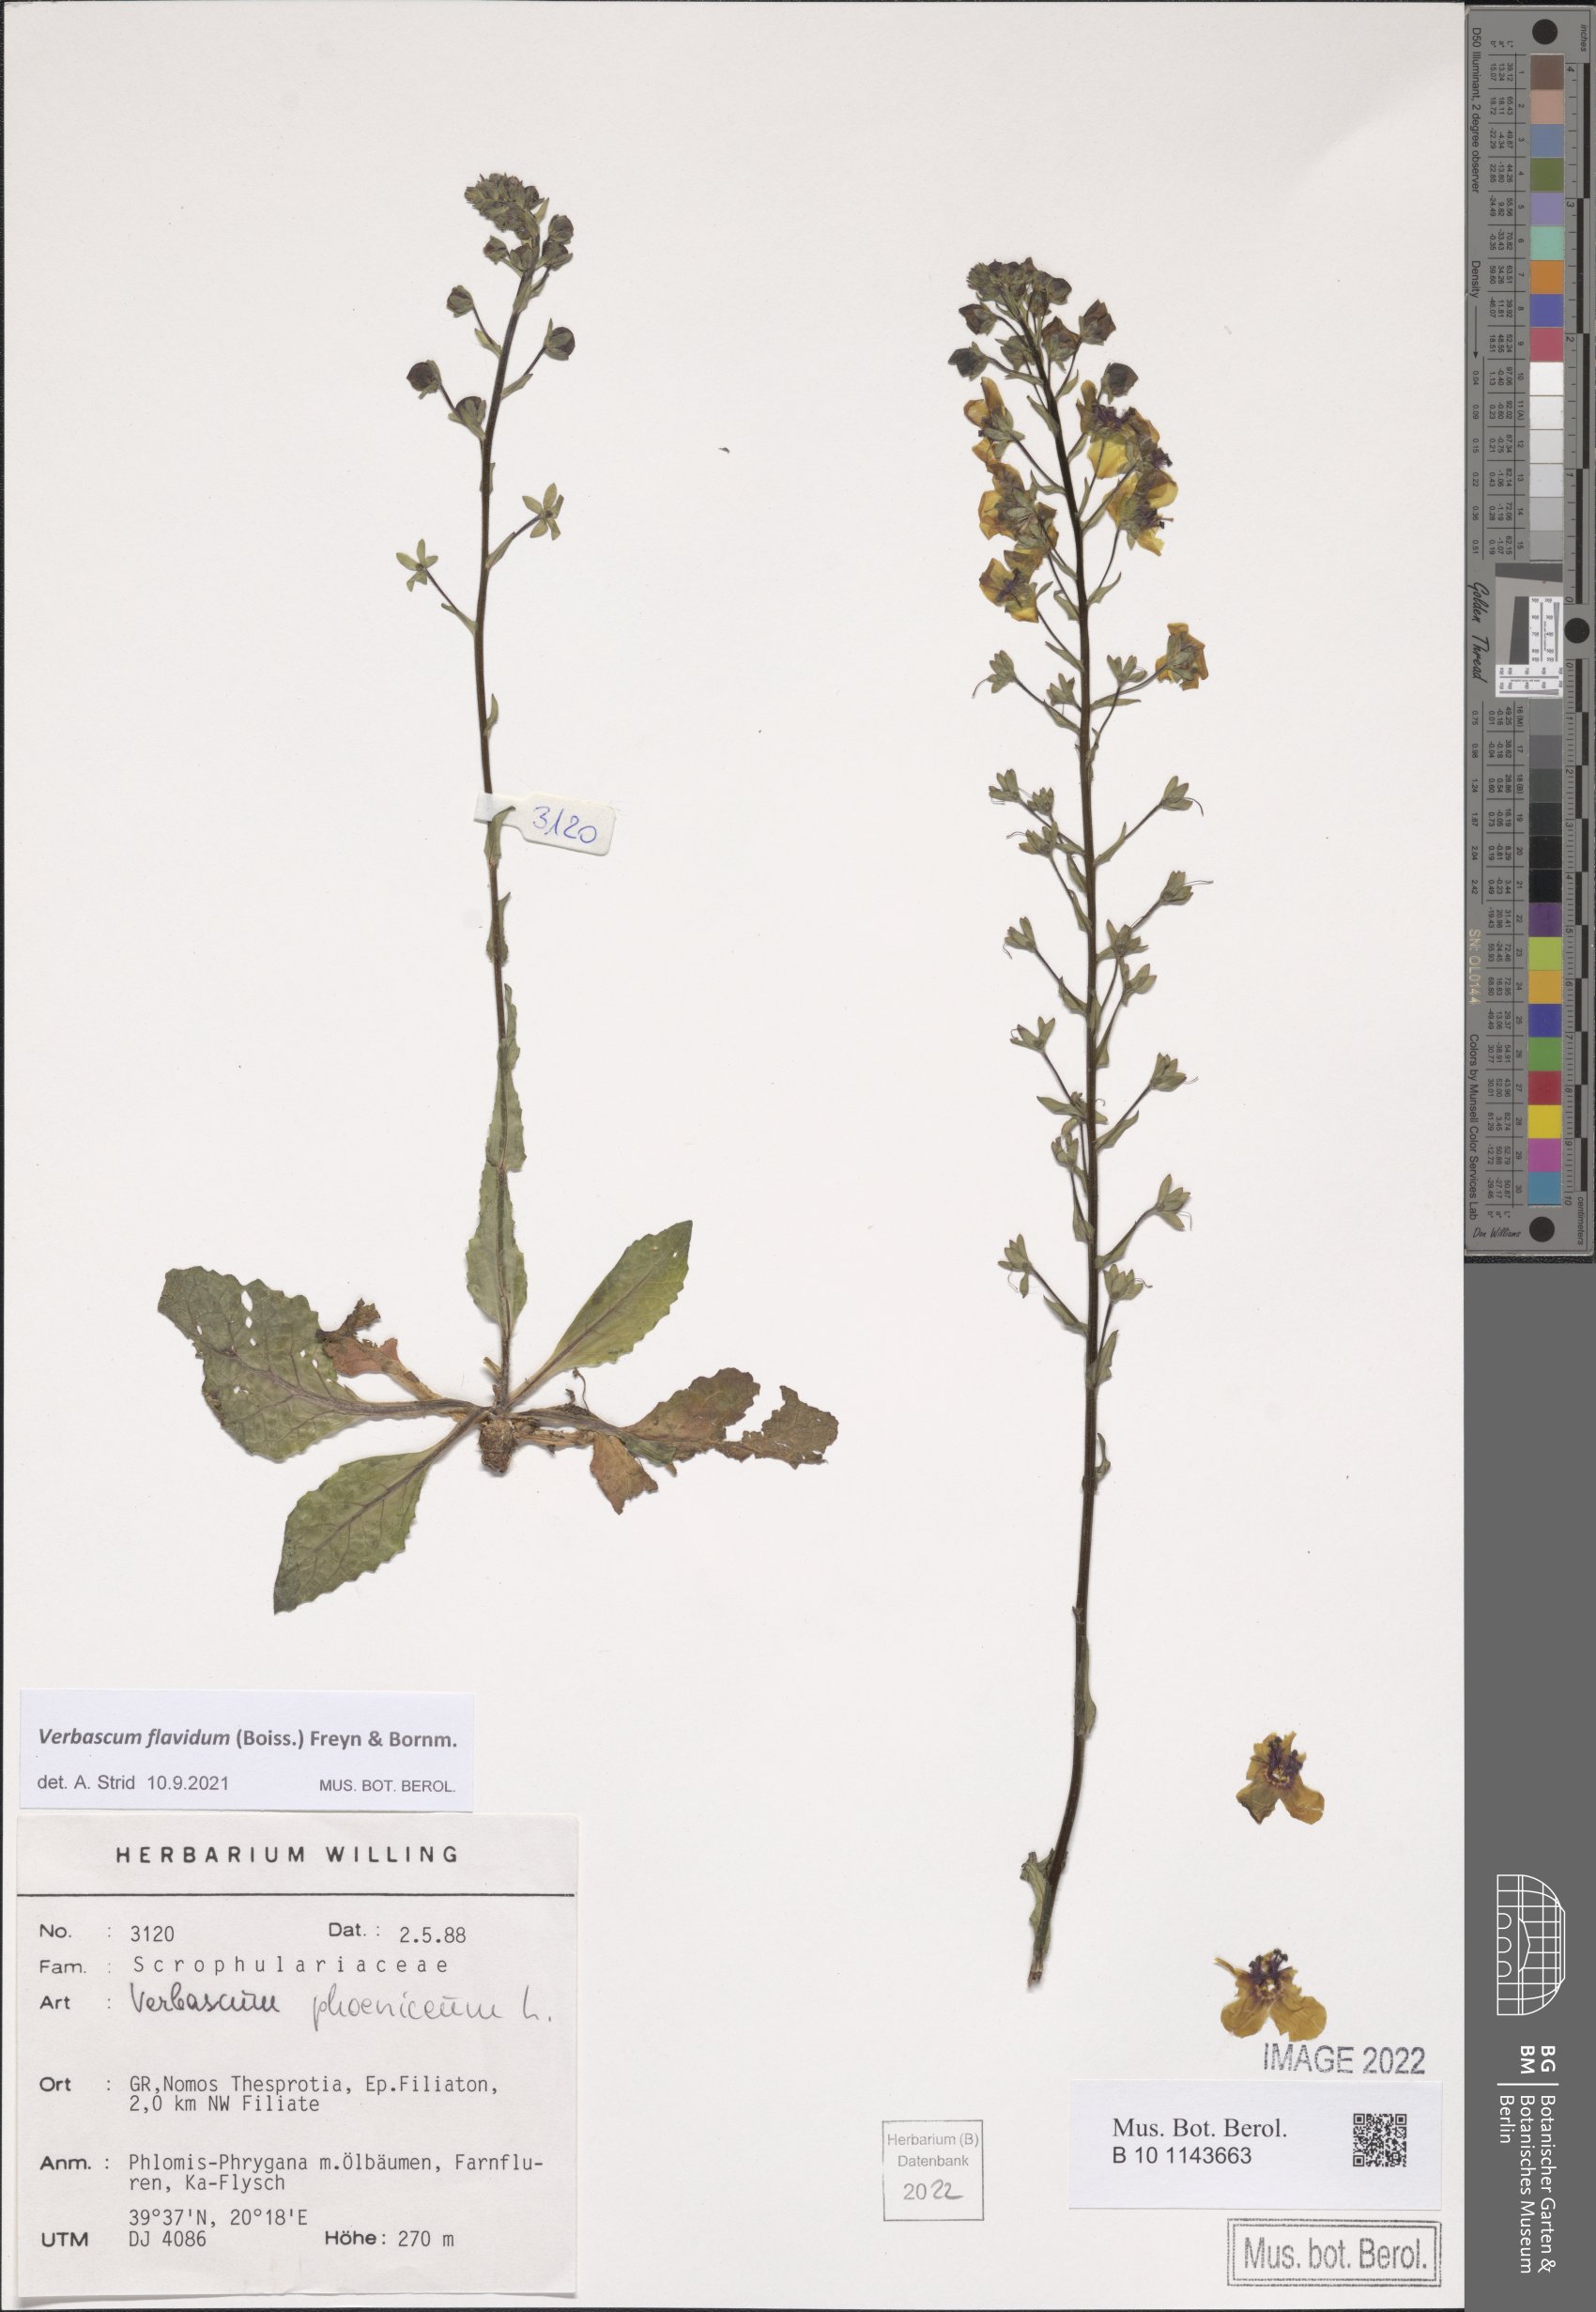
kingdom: Plantae
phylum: Tracheophyta
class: Magnoliopsida
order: Lamiales
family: Scrophulariaceae
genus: Verbascum
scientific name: Verbascum flavidum
